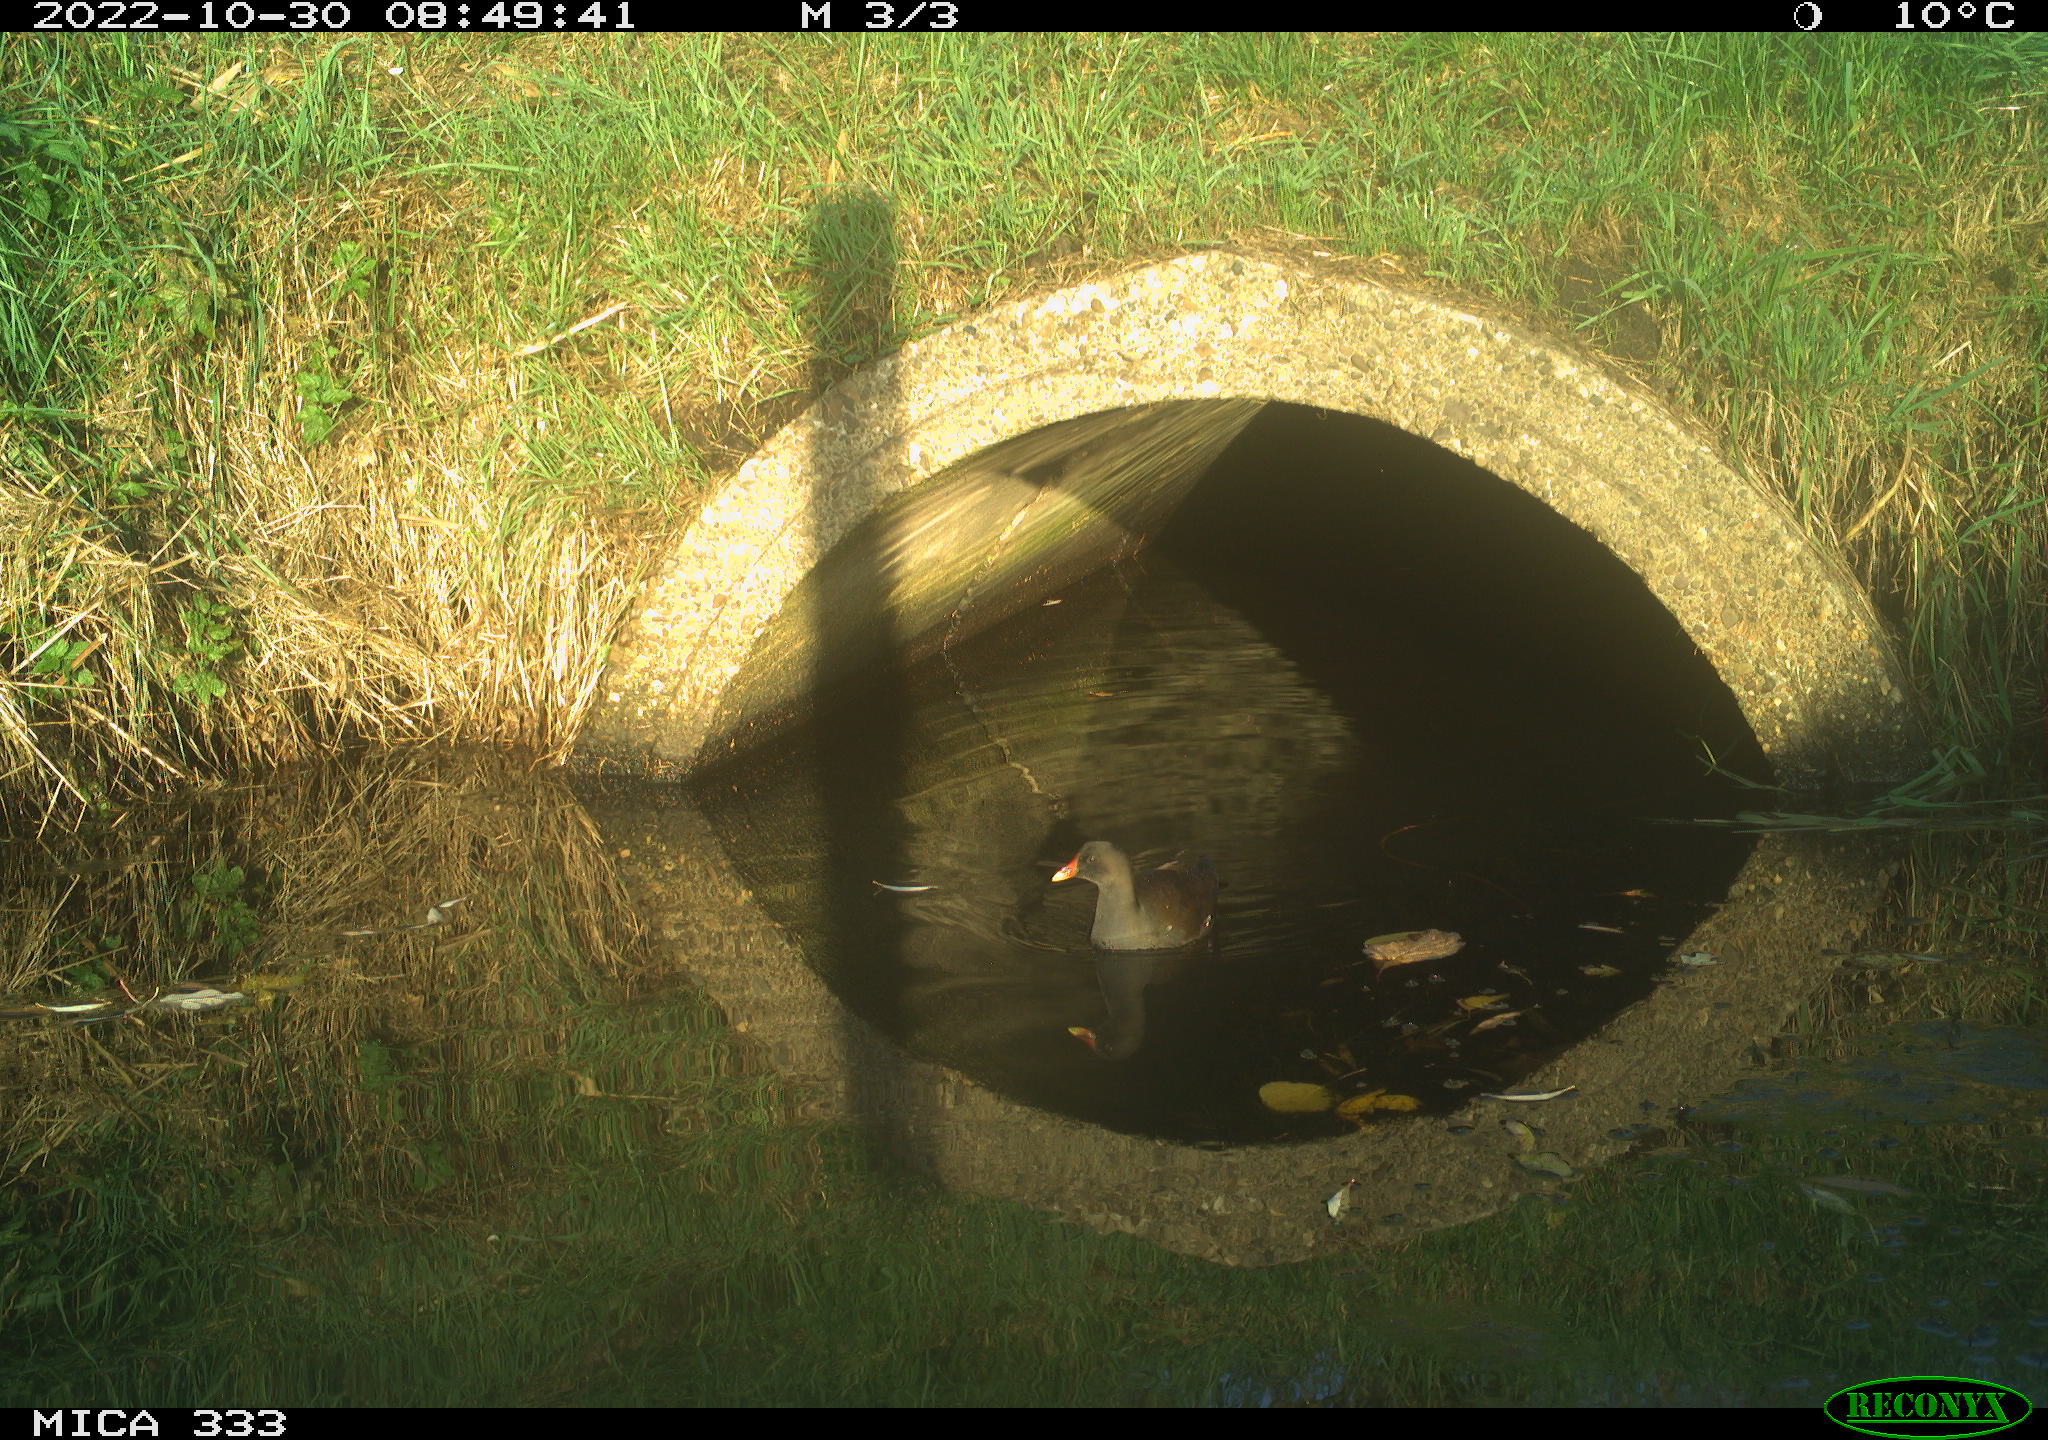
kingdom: Animalia
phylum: Chordata
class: Aves
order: Gruiformes
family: Rallidae
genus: Gallinula
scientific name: Gallinula chloropus
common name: Common moorhen
